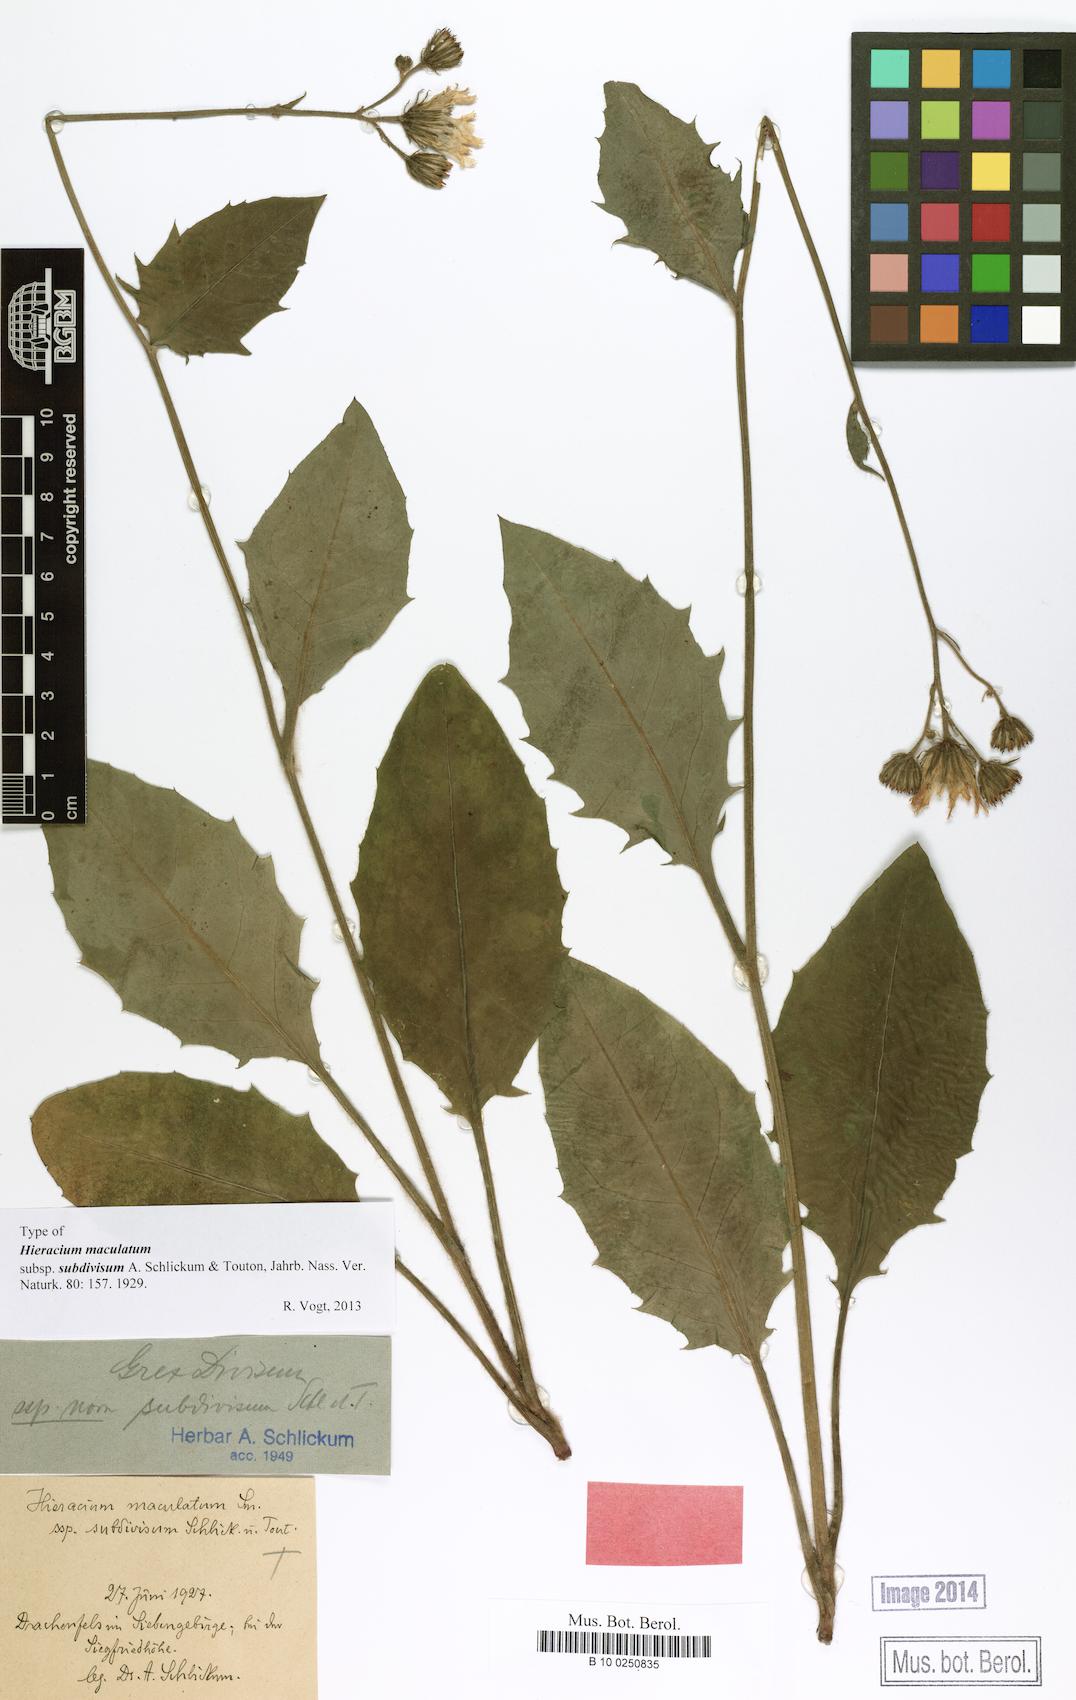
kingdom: Plantae
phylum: Tracheophyta
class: Magnoliopsida
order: Asterales
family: Asteraceae
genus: Hieracium
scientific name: Hieracium maculatum
